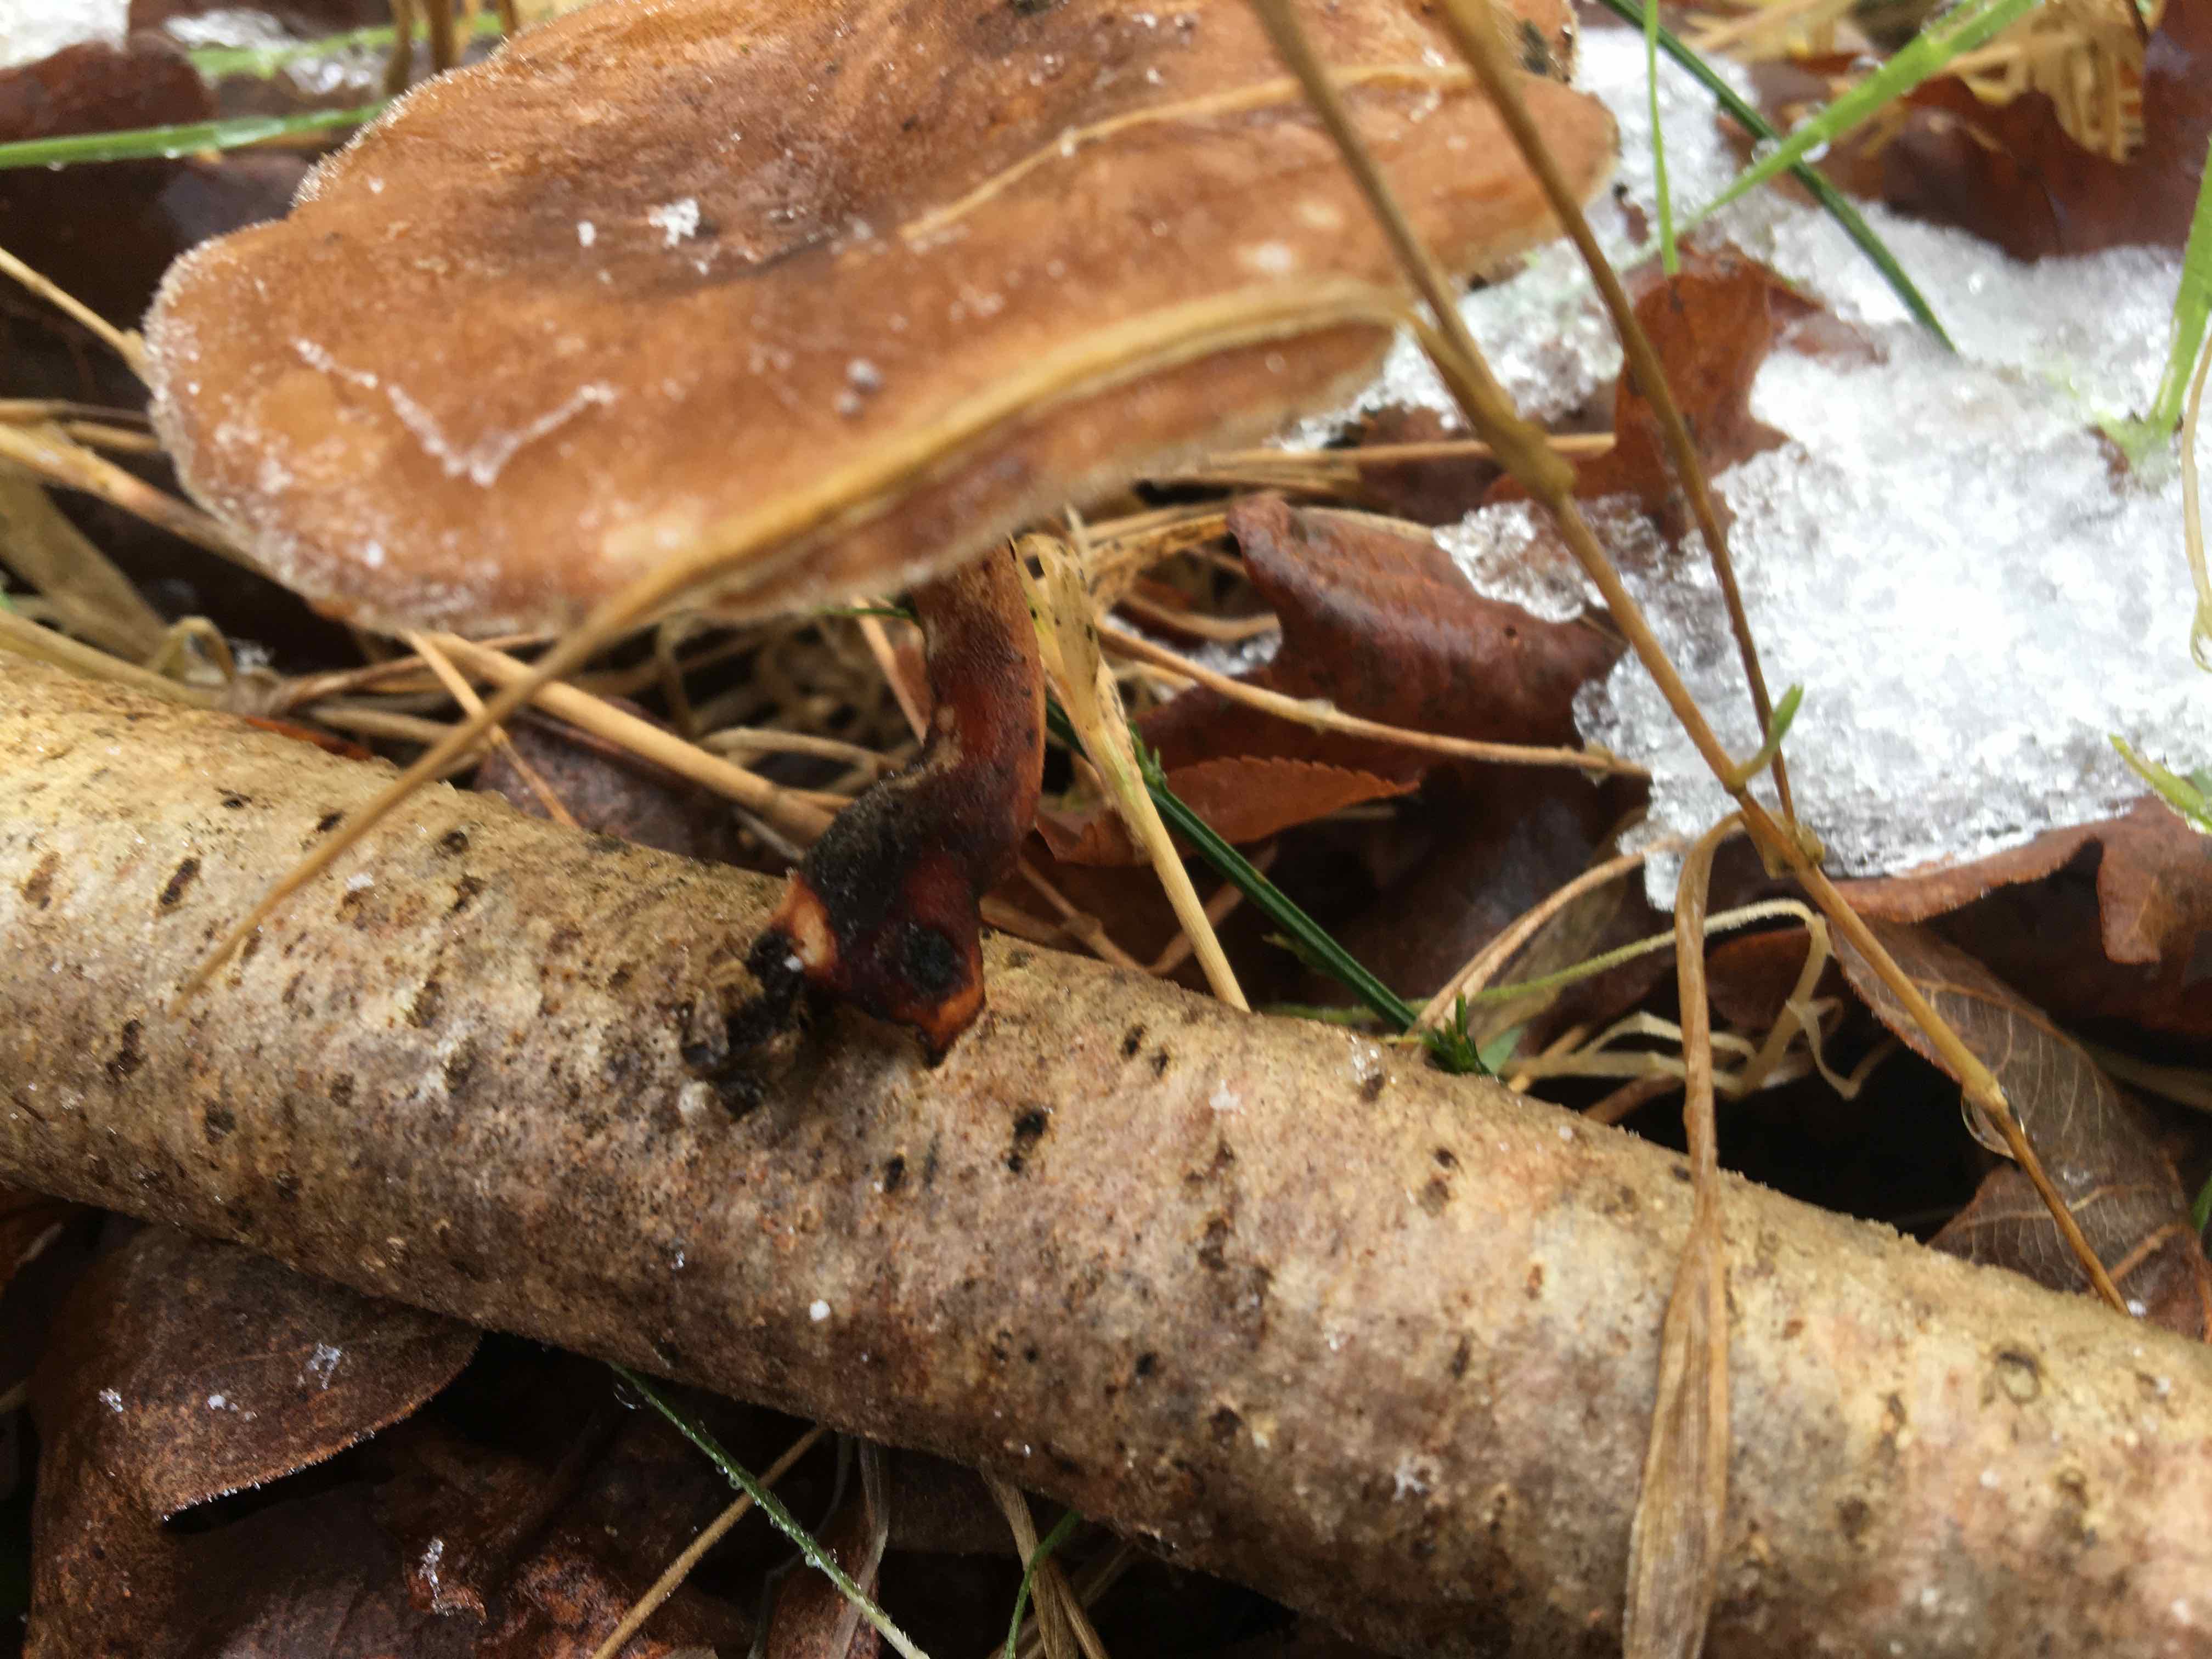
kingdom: Fungi
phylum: Basidiomycota
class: Agaricomycetes
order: Polyporales
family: Polyporaceae
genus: Lentinus
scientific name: Lentinus brumalis
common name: vinter-stilkporesvamp
